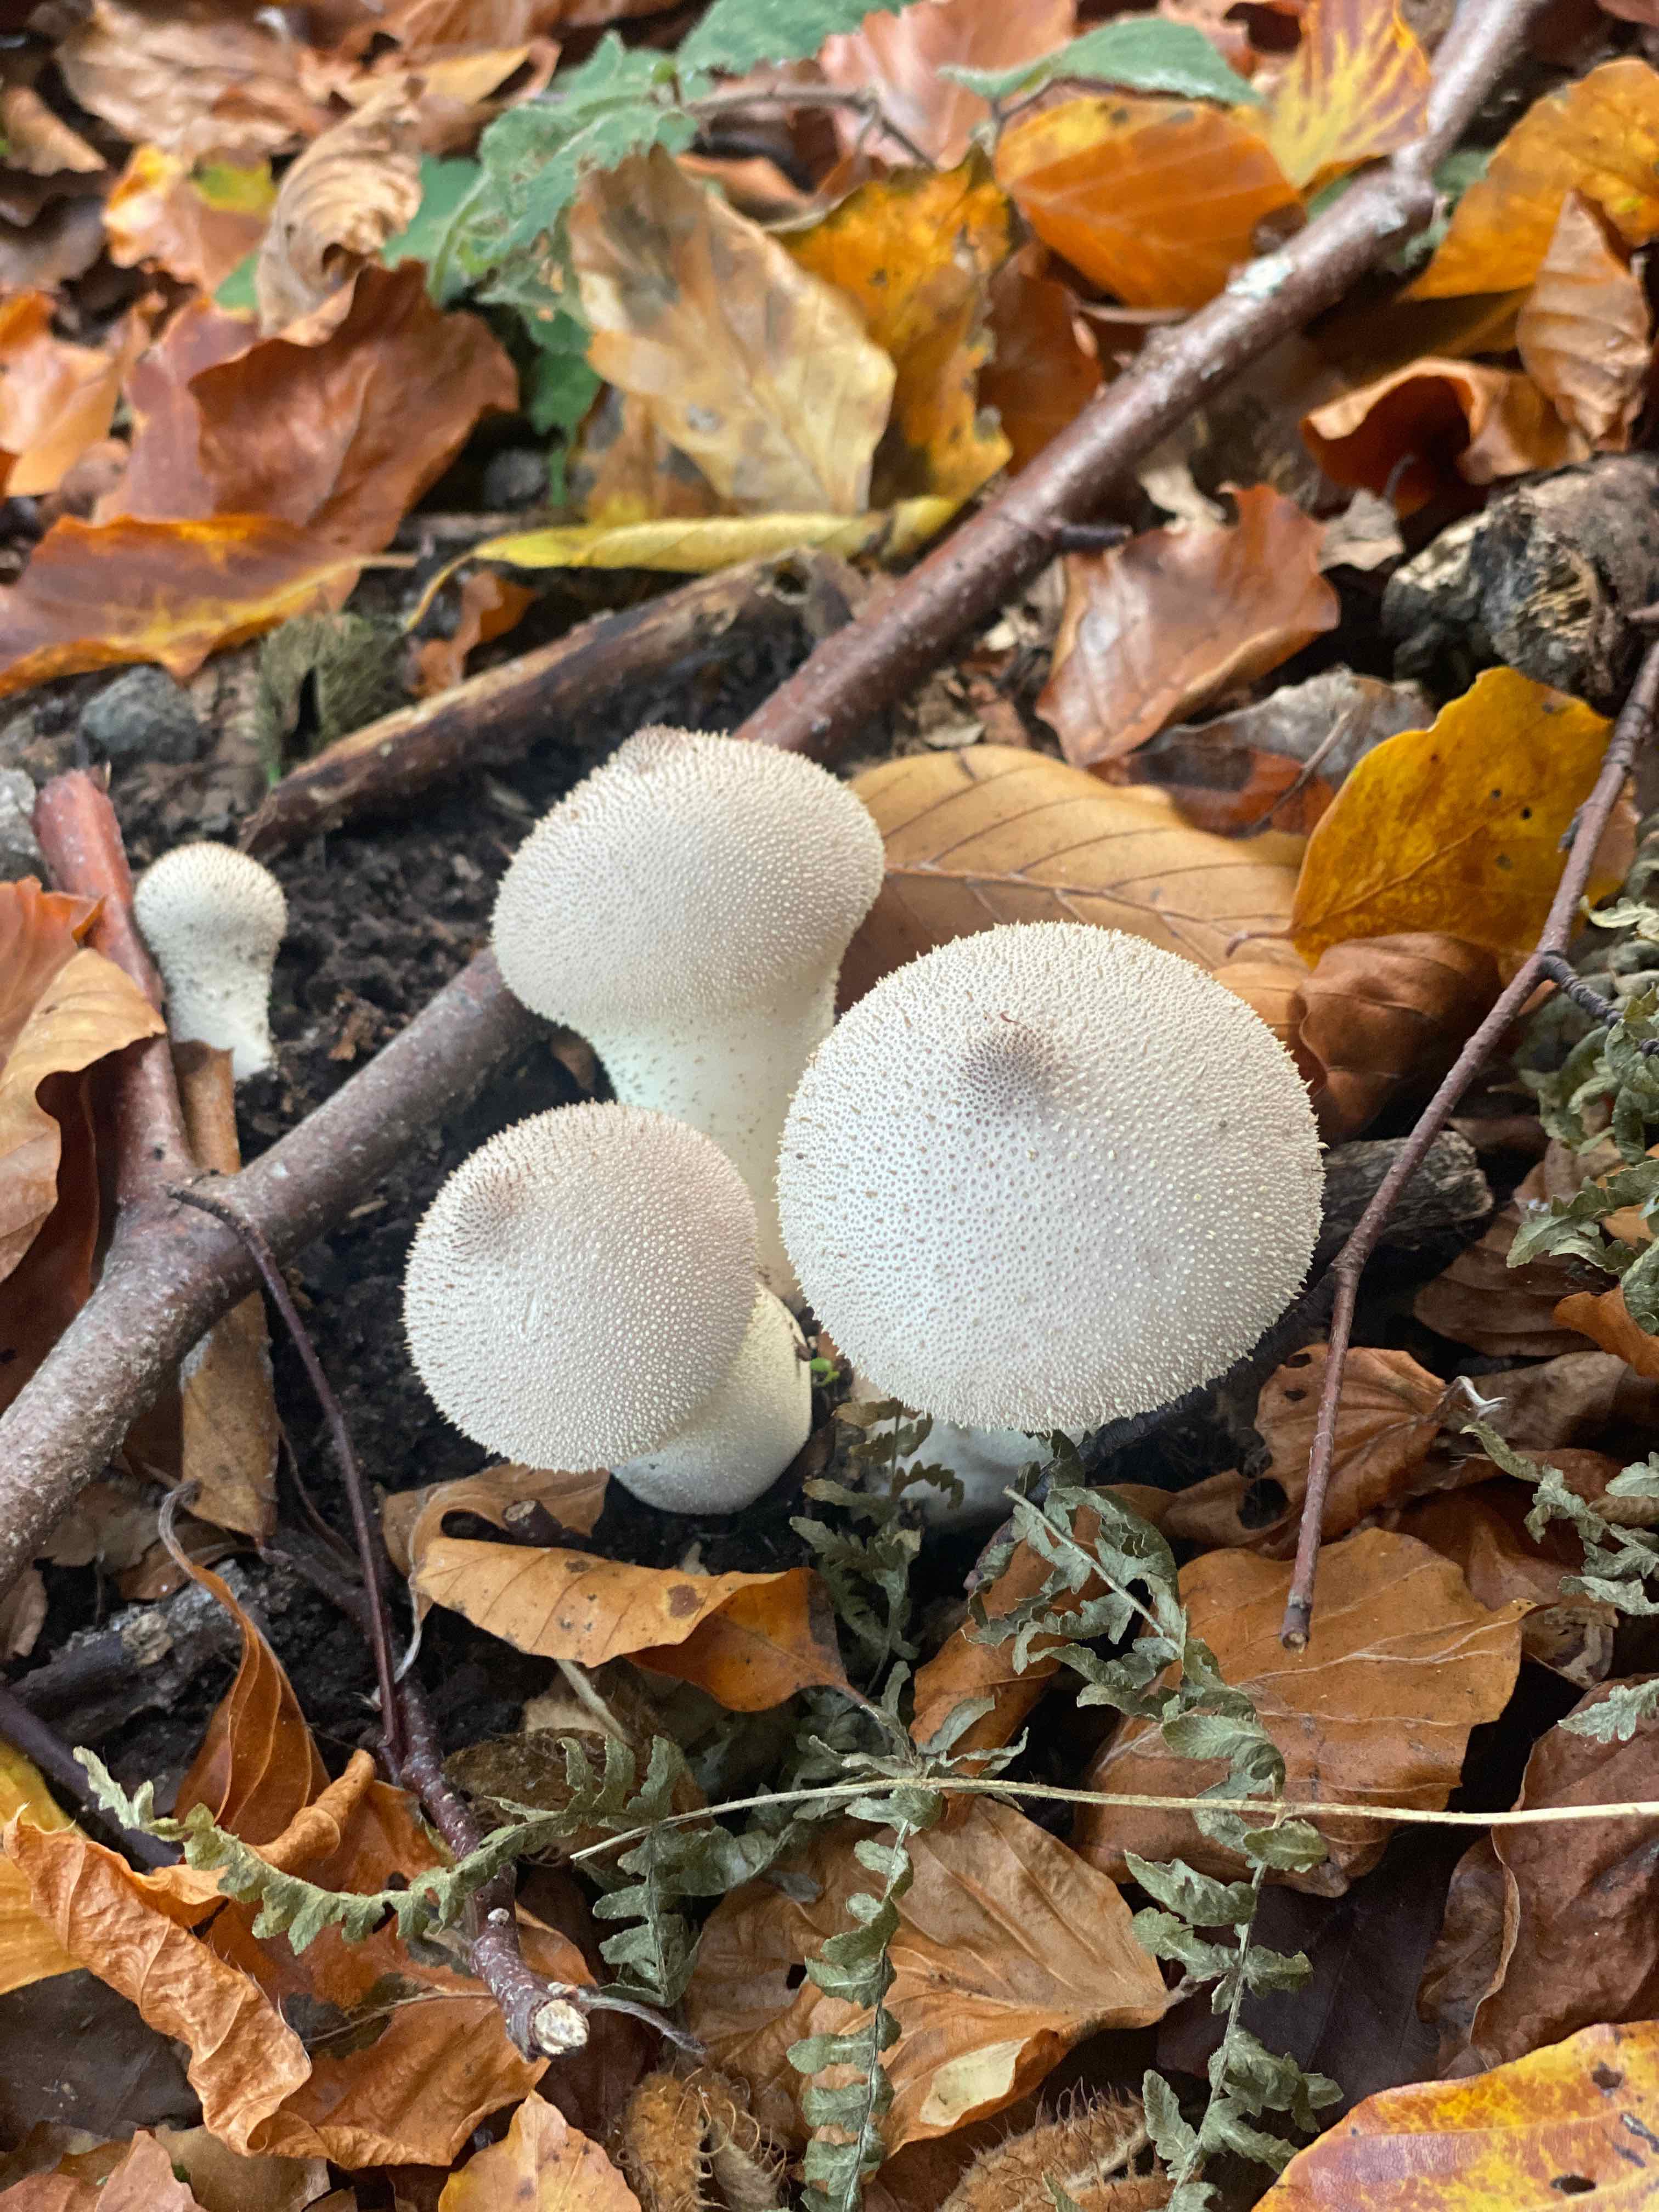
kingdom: Fungi
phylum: Basidiomycota
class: Agaricomycetes
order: Agaricales
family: Lycoperdaceae
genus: Lycoperdon
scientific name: Lycoperdon perlatum
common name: krystal-støvbold
